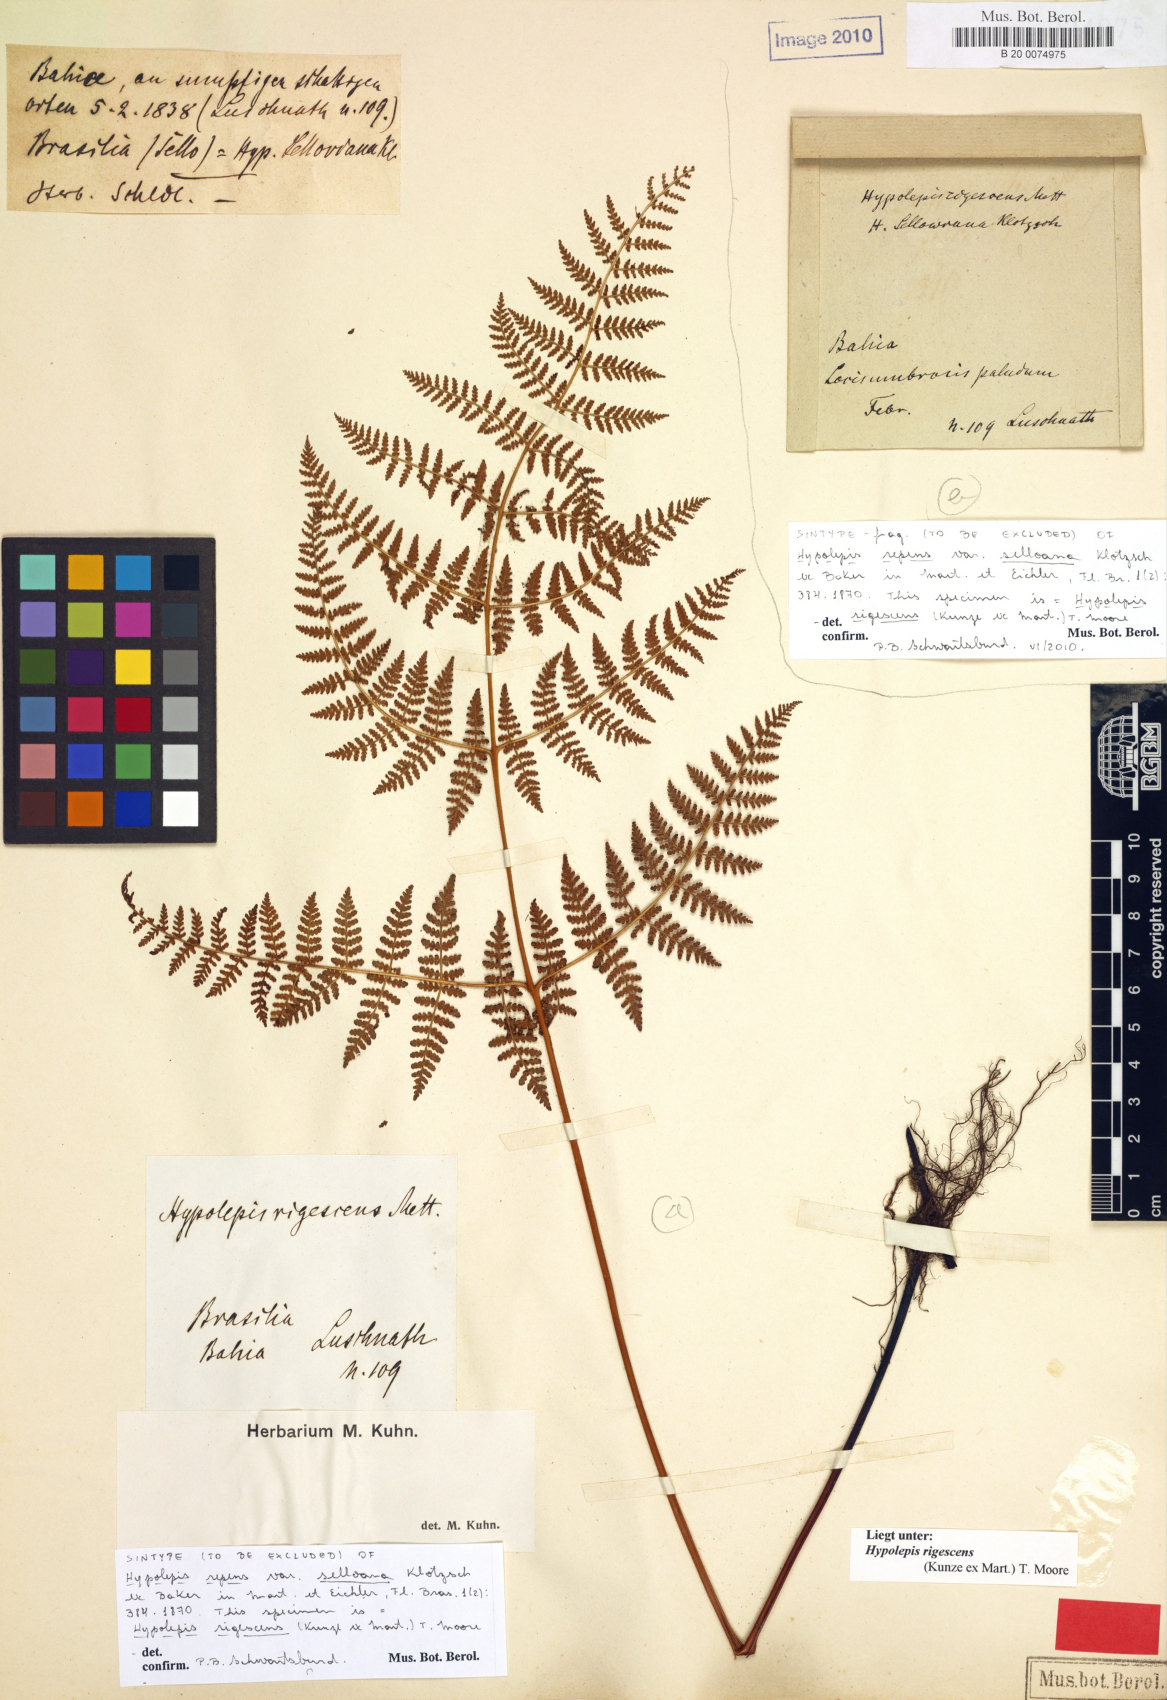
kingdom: Plantae
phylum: Tracheophyta
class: Polypodiopsida
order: Polypodiales
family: Dennstaedtiaceae
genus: Hypolepis
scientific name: Hypolepis rigescens
